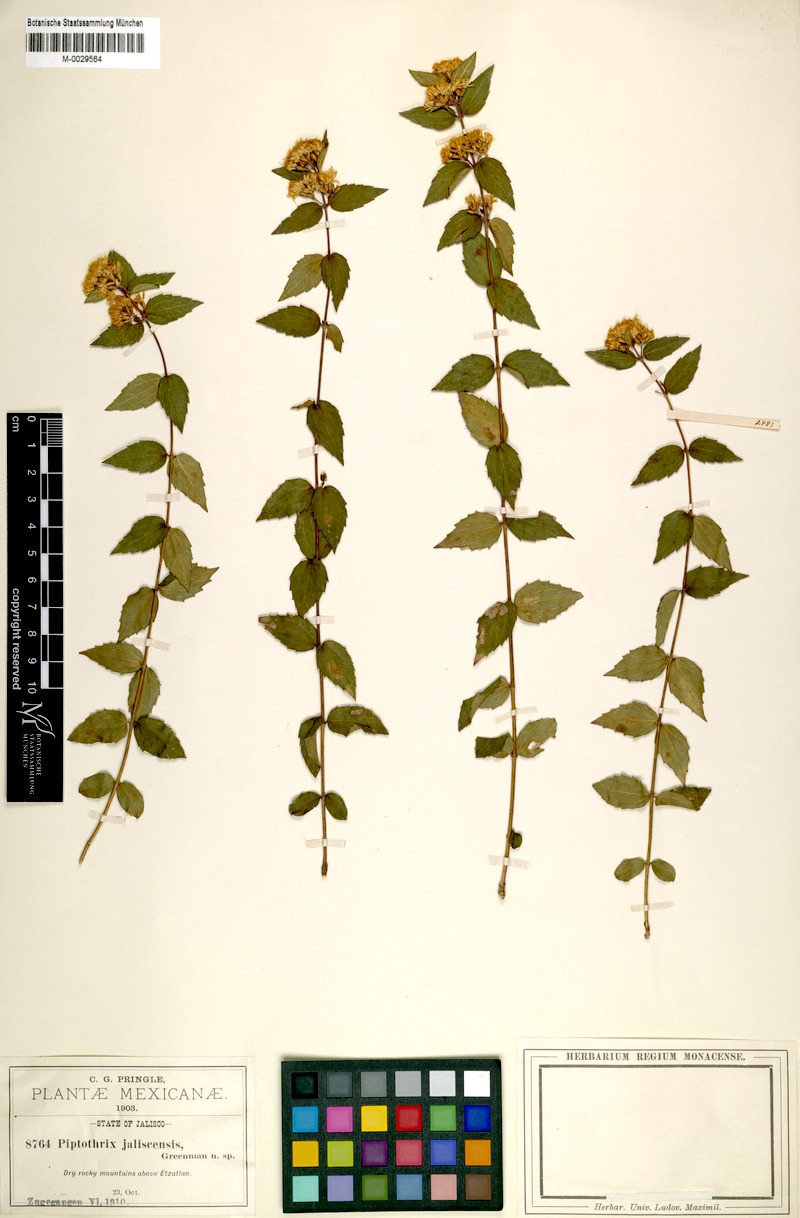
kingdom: Plantae
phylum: Tracheophyta
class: Magnoliopsida
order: Asterales
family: Asteraceae
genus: Ageratina
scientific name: Ageratina jaliscensis
